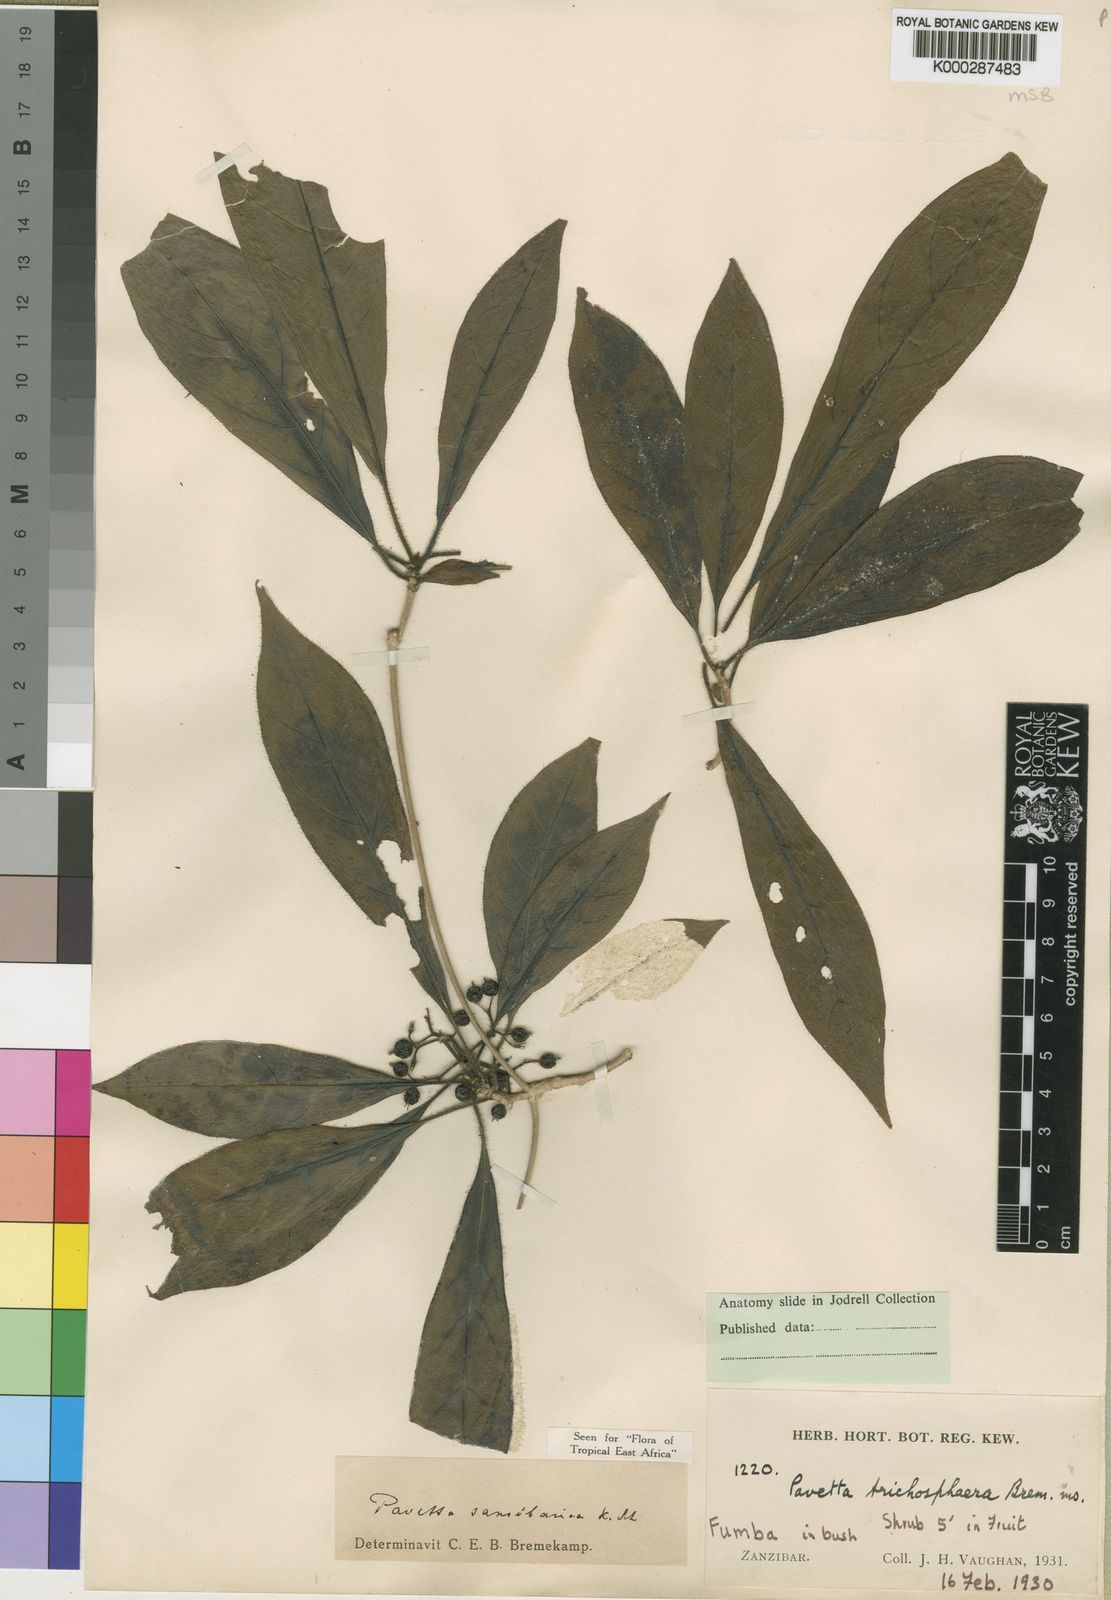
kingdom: Plantae
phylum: Tracheophyta
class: Magnoliopsida
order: Gentianales
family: Rubiaceae
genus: Pavetta
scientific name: Pavetta sansibarica
